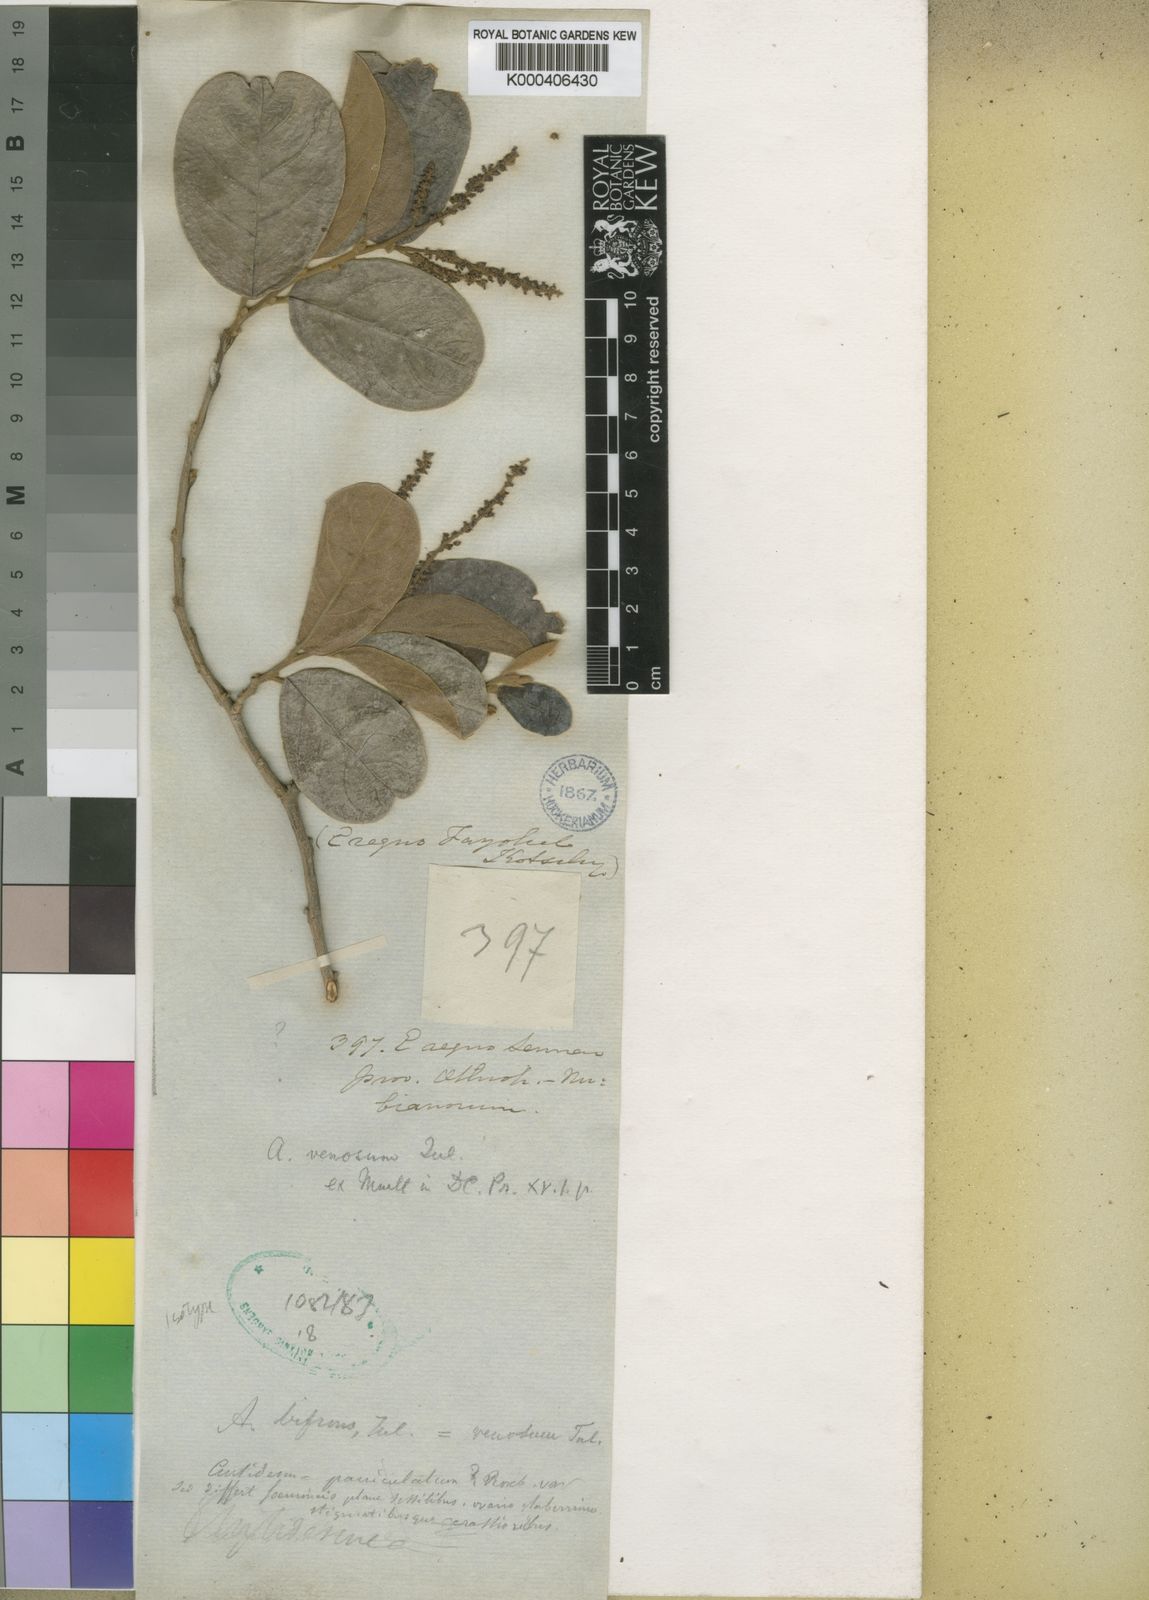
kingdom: Plantae
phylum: Tracheophyta
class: Magnoliopsida
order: Malpighiales
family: Phyllanthaceae
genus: Antidesma
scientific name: Antidesma venosum
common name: Tassel-berry
